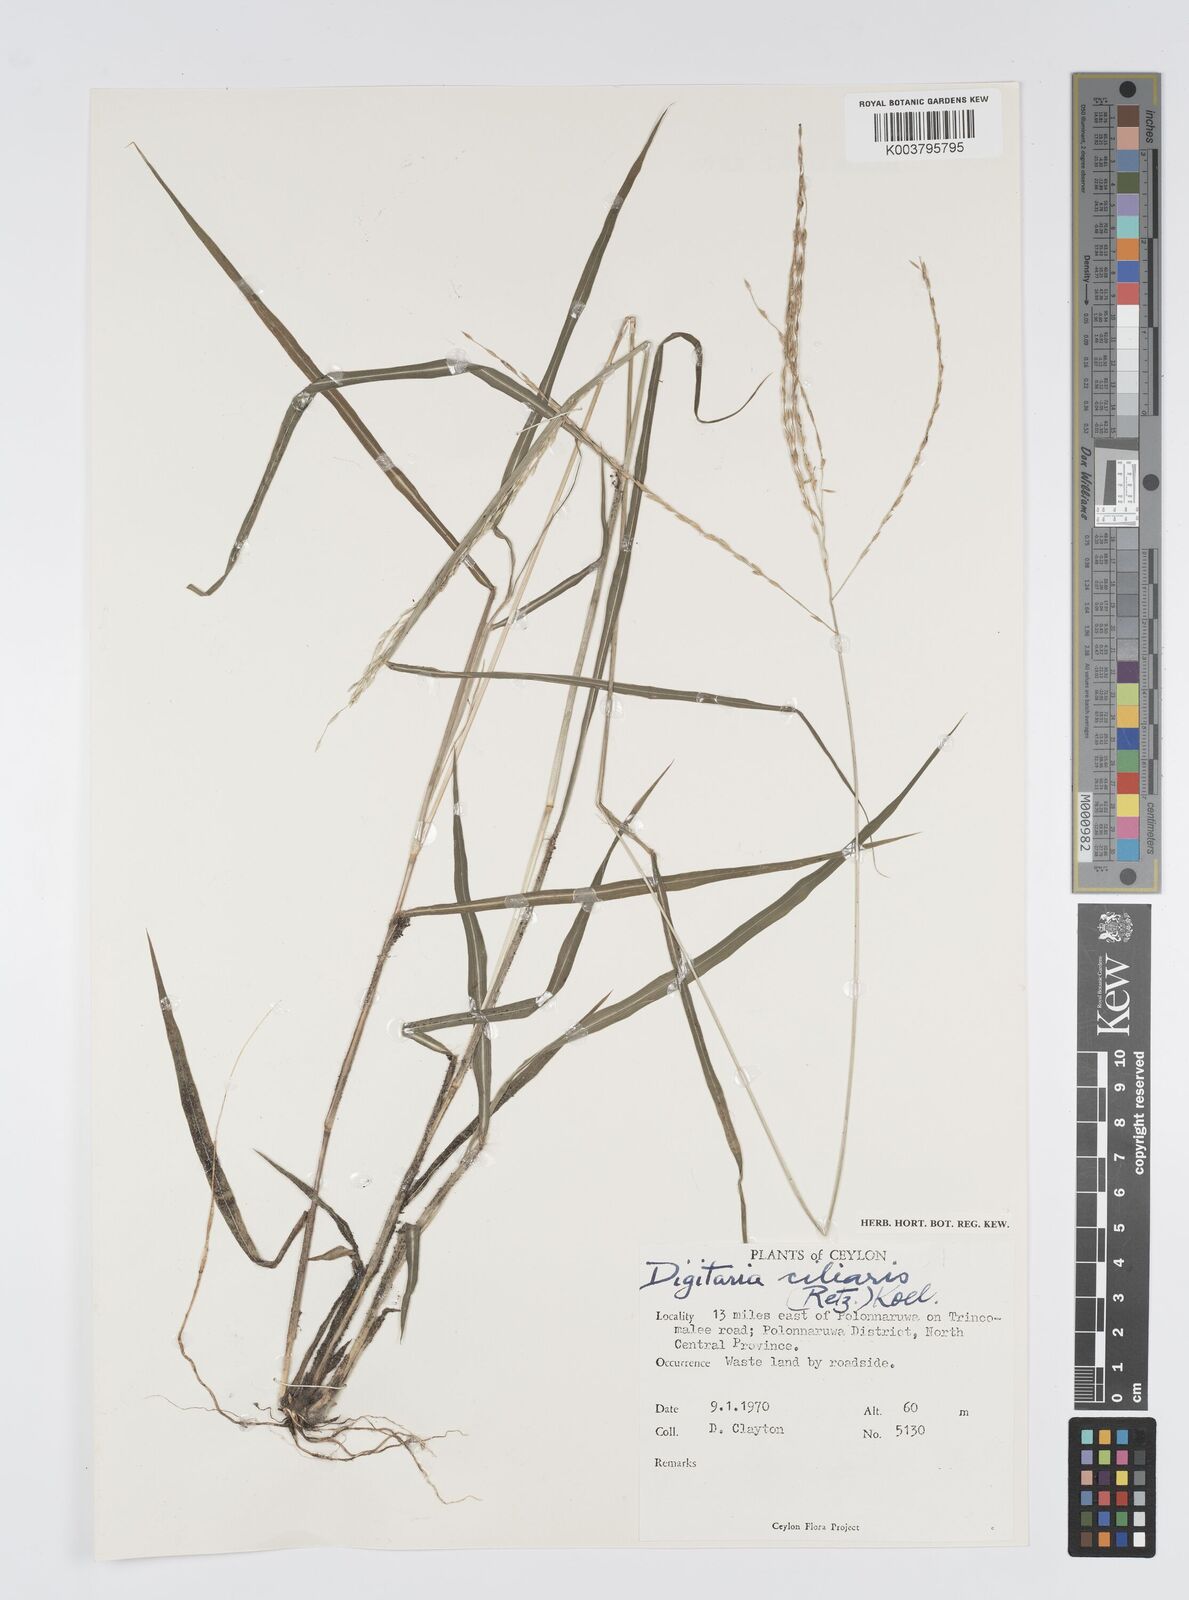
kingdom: Plantae
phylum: Tracheophyta
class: Liliopsida
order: Poales
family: Poaceae
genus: Digitaria
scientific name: Digitaria junghuhniana
